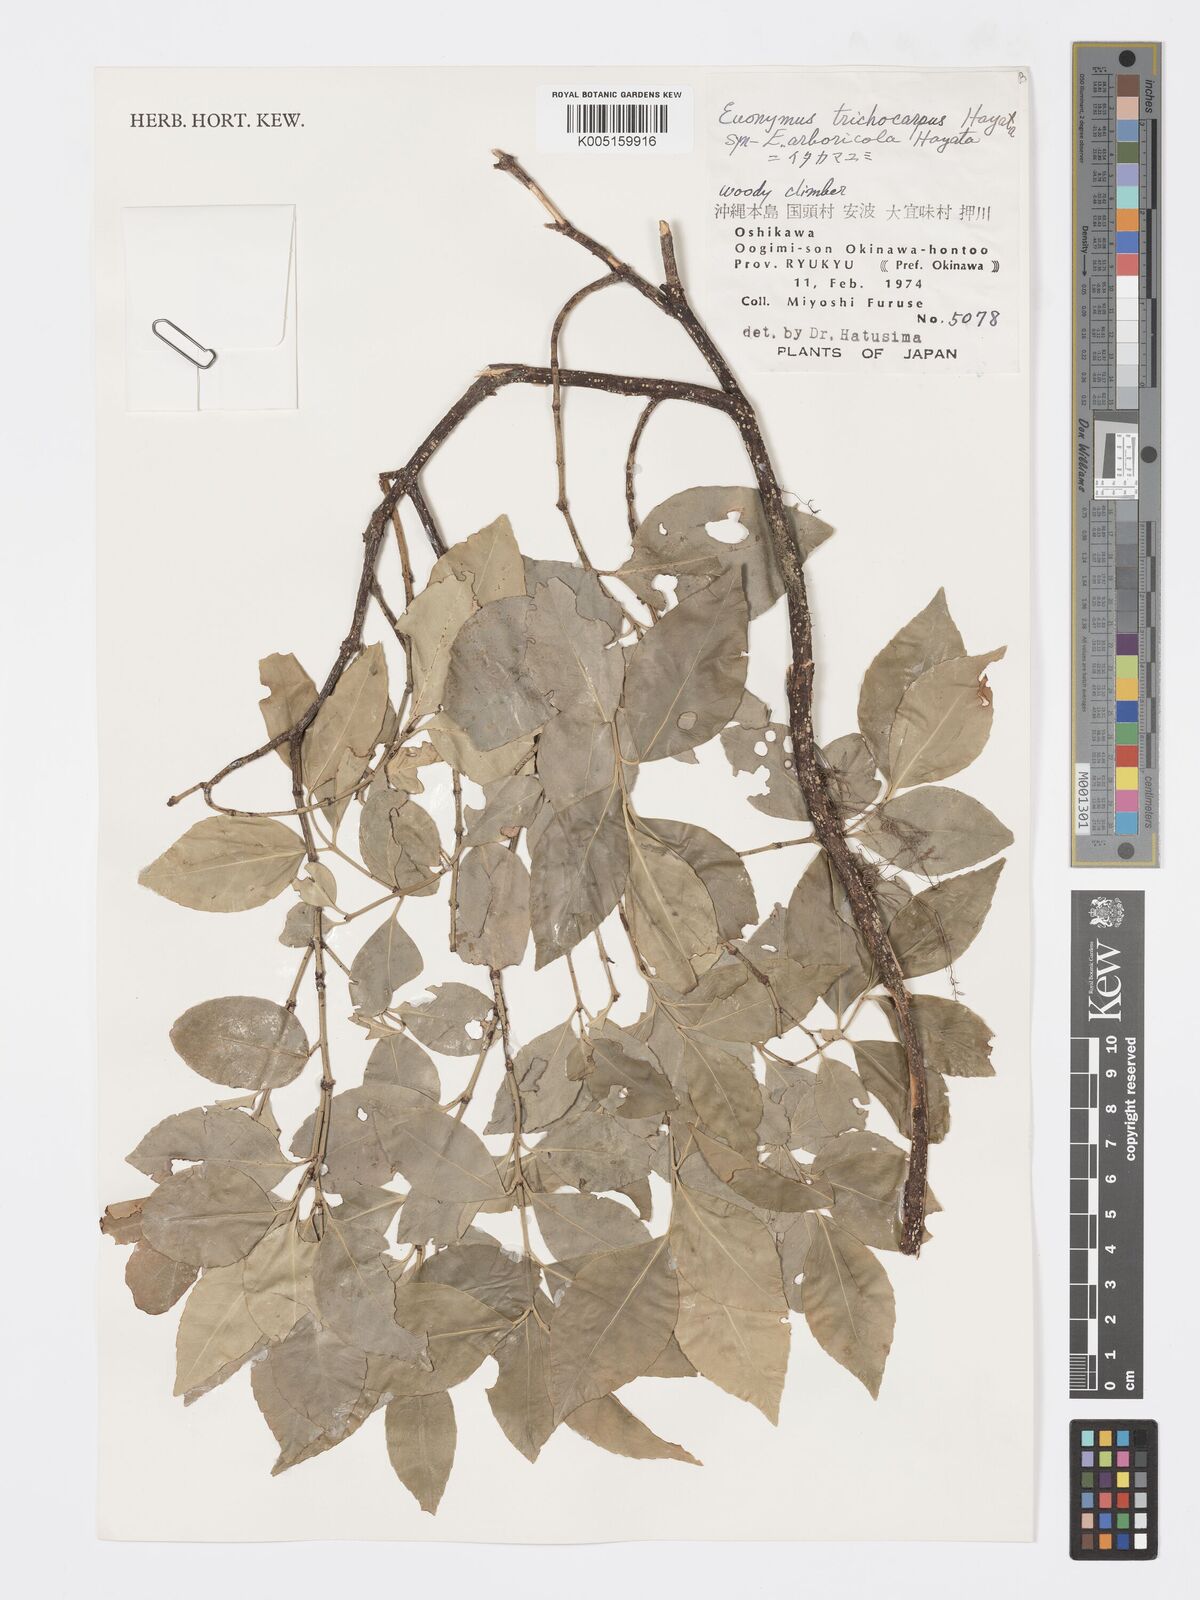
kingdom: Plantae
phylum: Tracheophyta
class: Magnoliopsida
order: Celastrales
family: Celastraceae
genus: Euonymus
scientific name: Euonymus echinatus
